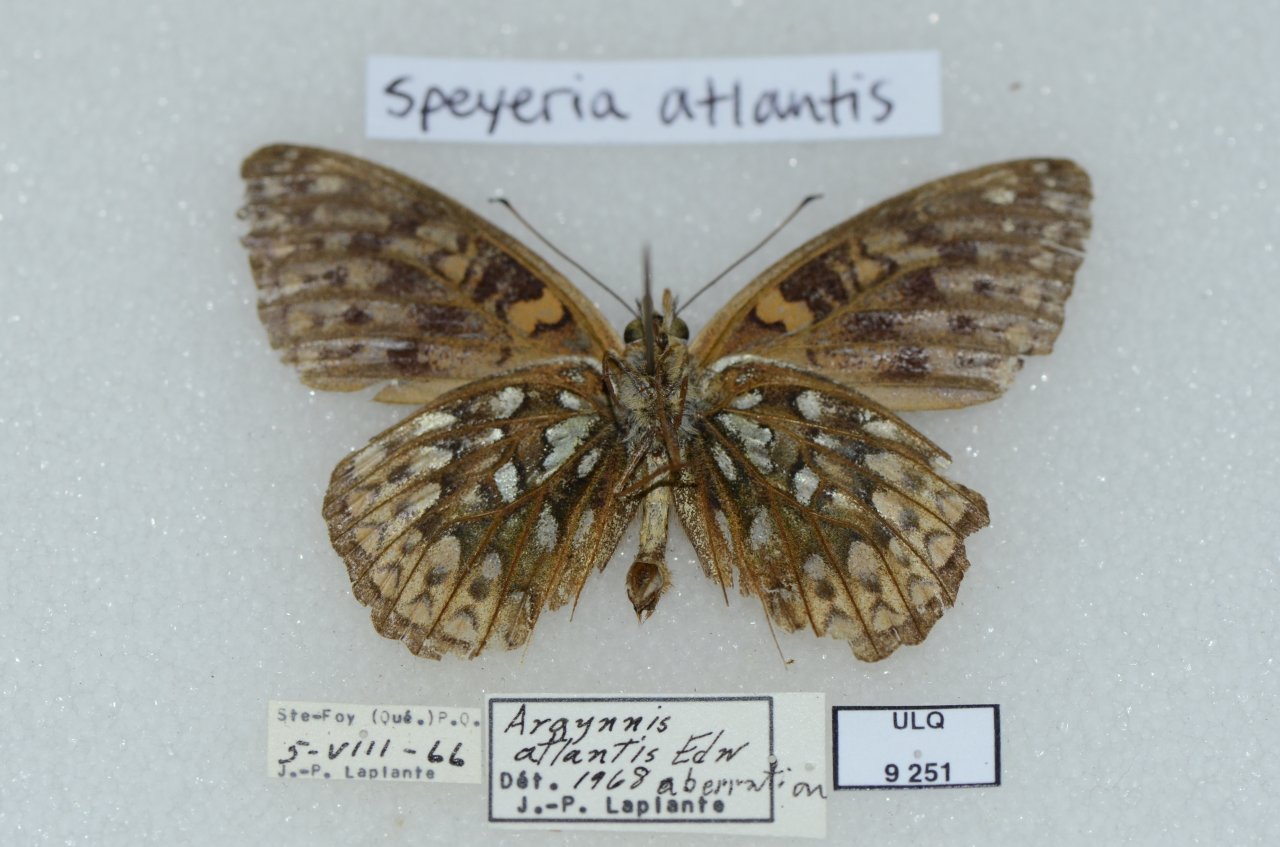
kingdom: Animalia
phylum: Arthropoda
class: Insecta
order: Lepidoptera
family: Nymphalidae
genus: Speyeria
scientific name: Speyeria atlantis
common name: Atlantis Fritillary
